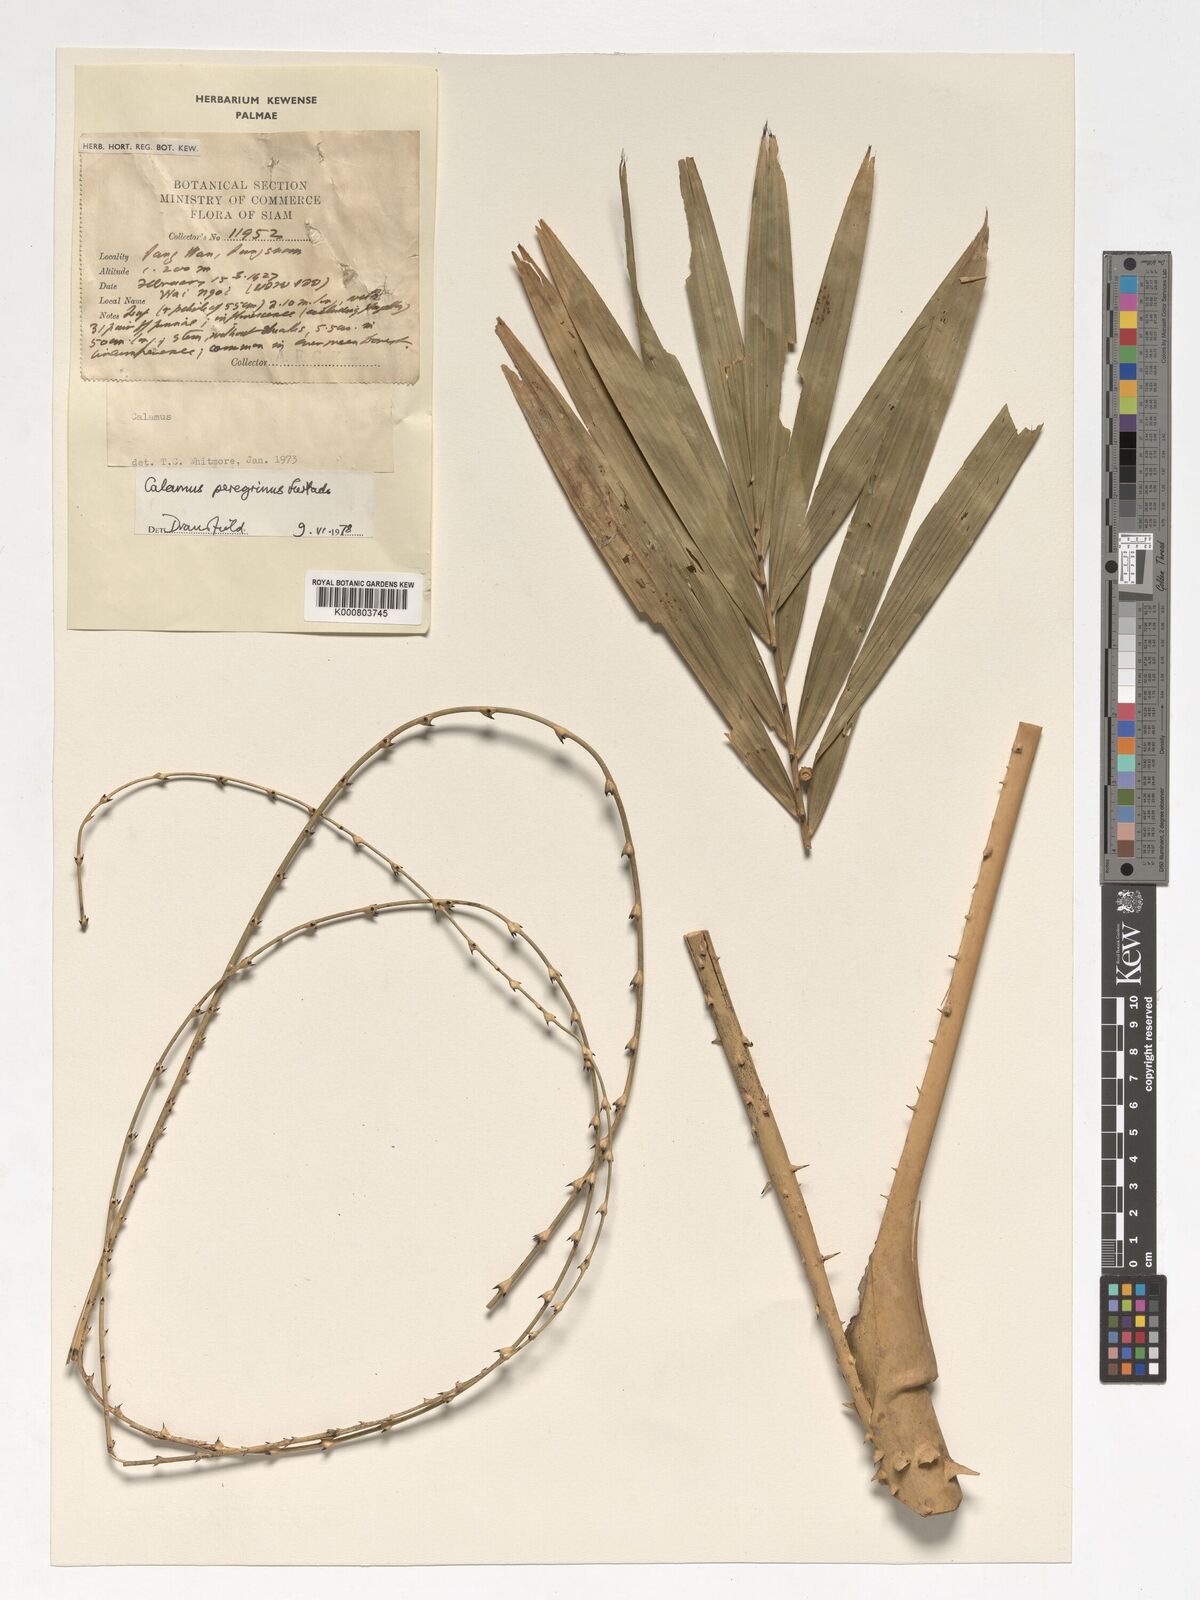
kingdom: Plantae
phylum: Tracheophyta
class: Liliopsida
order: Arecales
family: Arecaceae
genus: Calamus
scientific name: Calamus peregrinus
